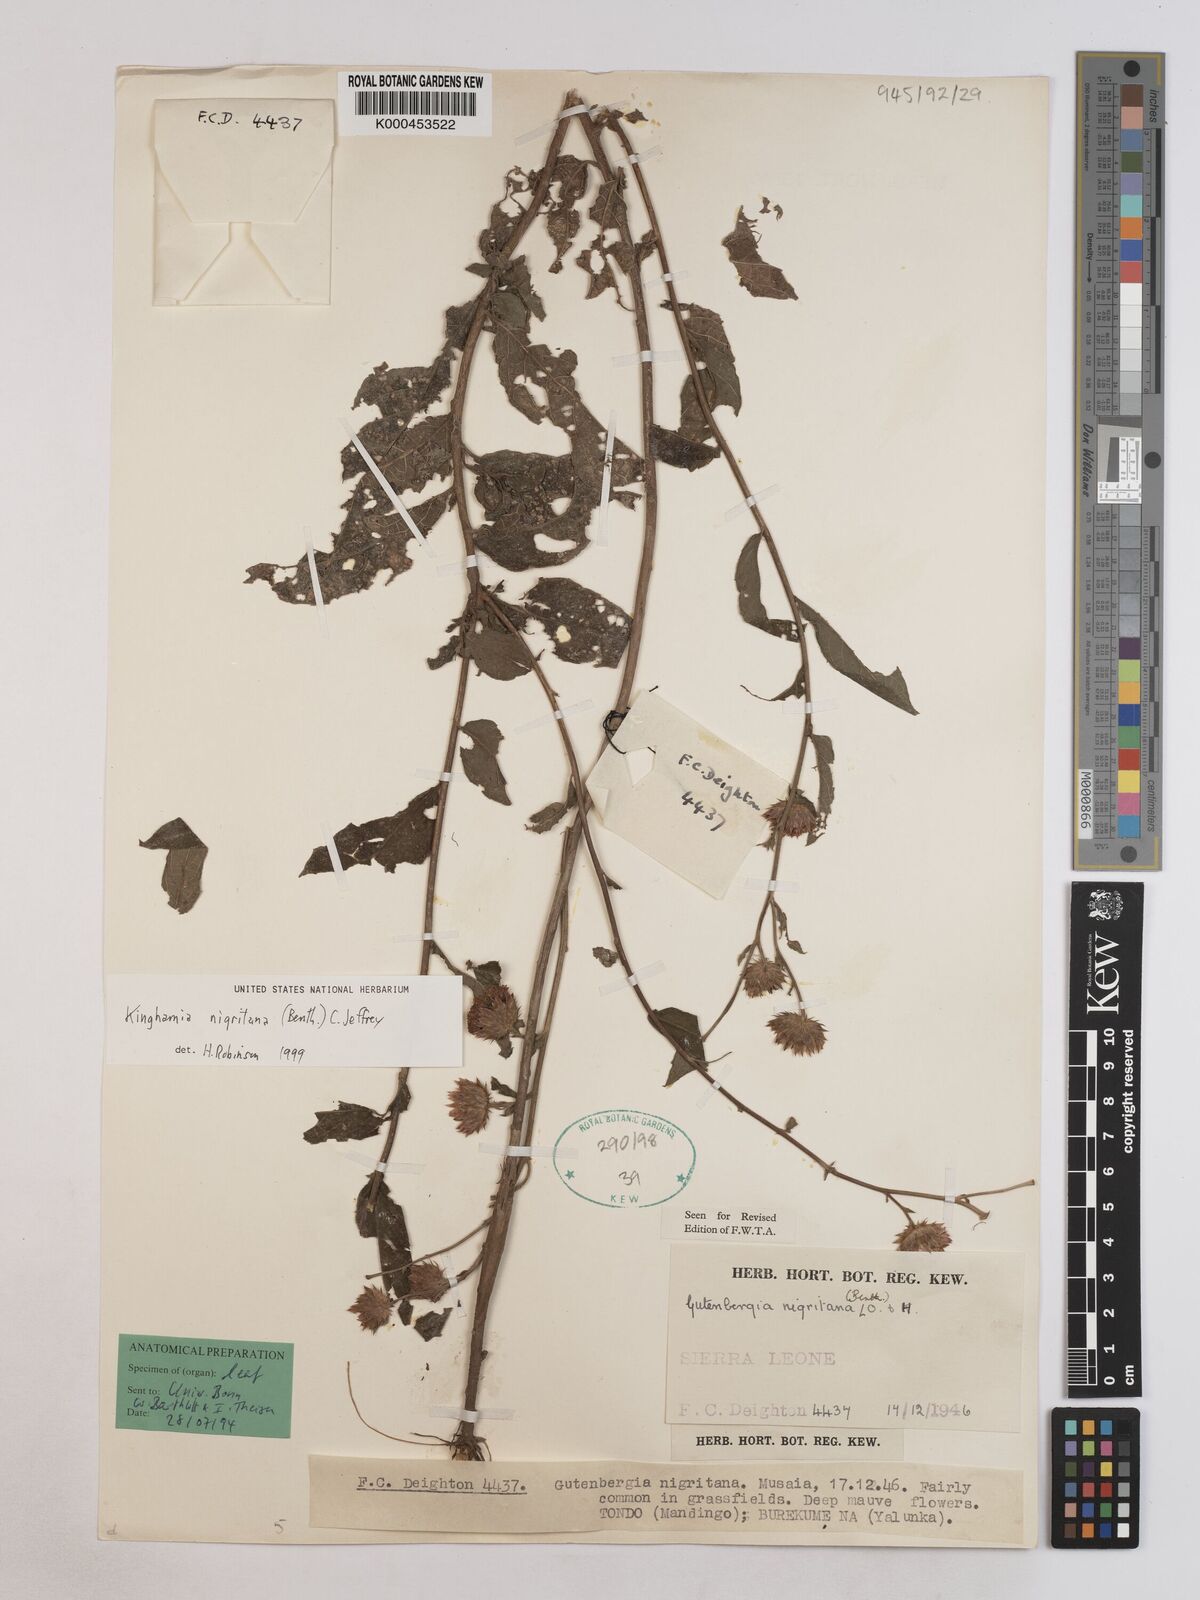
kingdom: Plantae
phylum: Tracheophyta
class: Magnoliopsida
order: Asterales
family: Asteraceae
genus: Kinghamia
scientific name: Kinghamia nigritana
